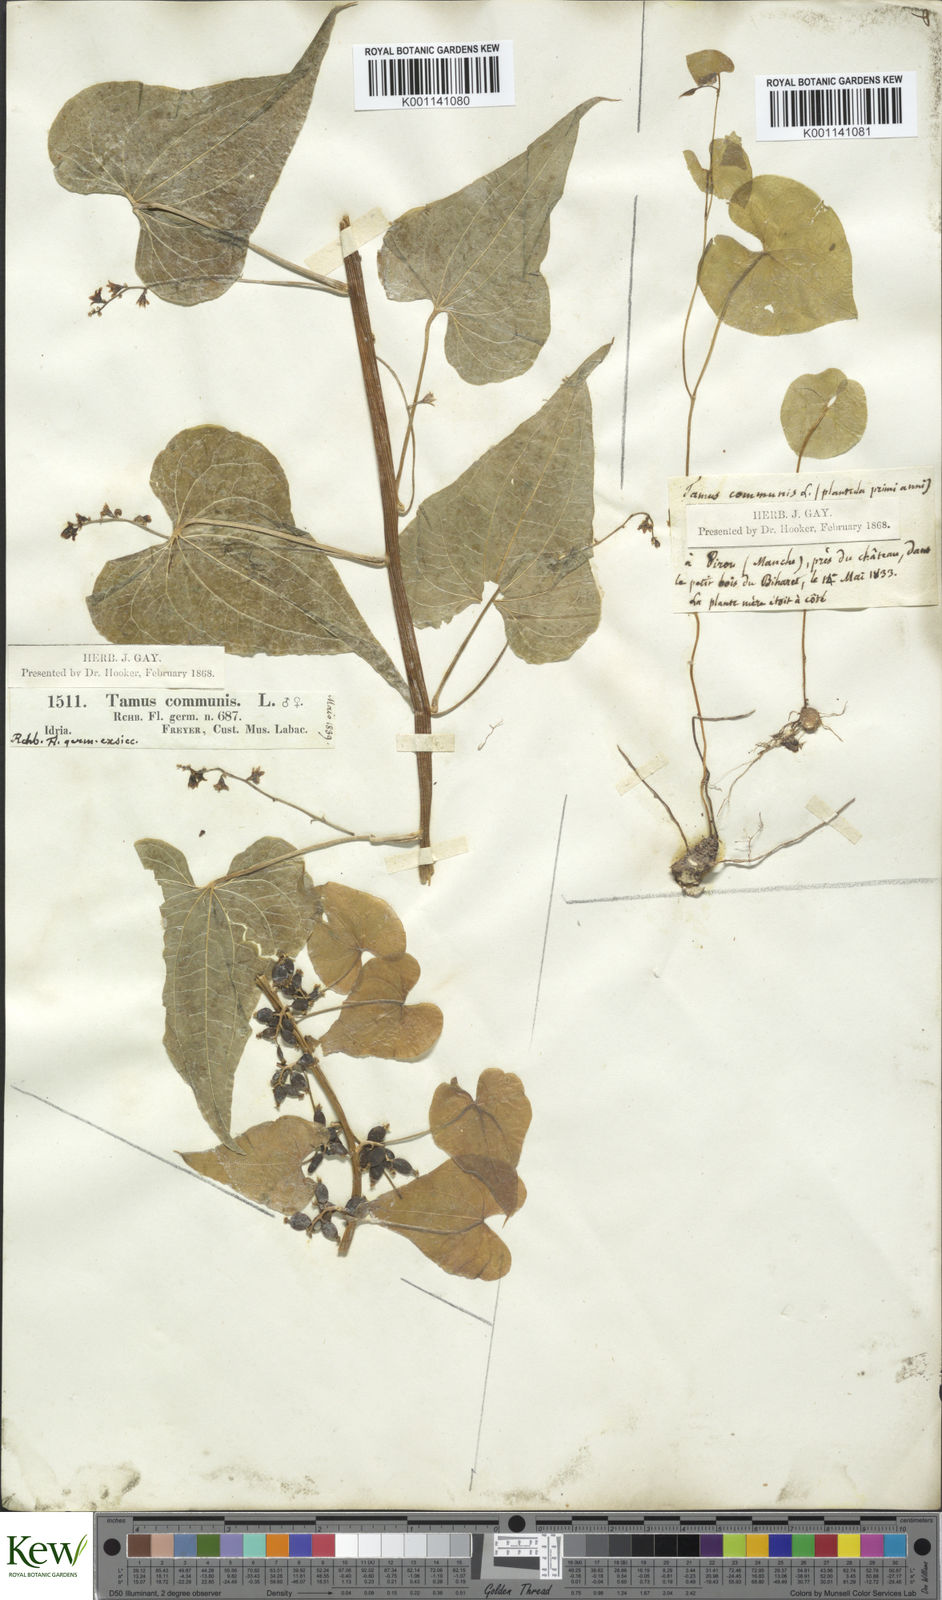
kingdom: Plantae
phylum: Tracheophyta
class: Liliopsida
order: Dioscoreales
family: Dioscoreaceae
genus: Dioscorea
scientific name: Dioscorea communis
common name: Black-bindweed
